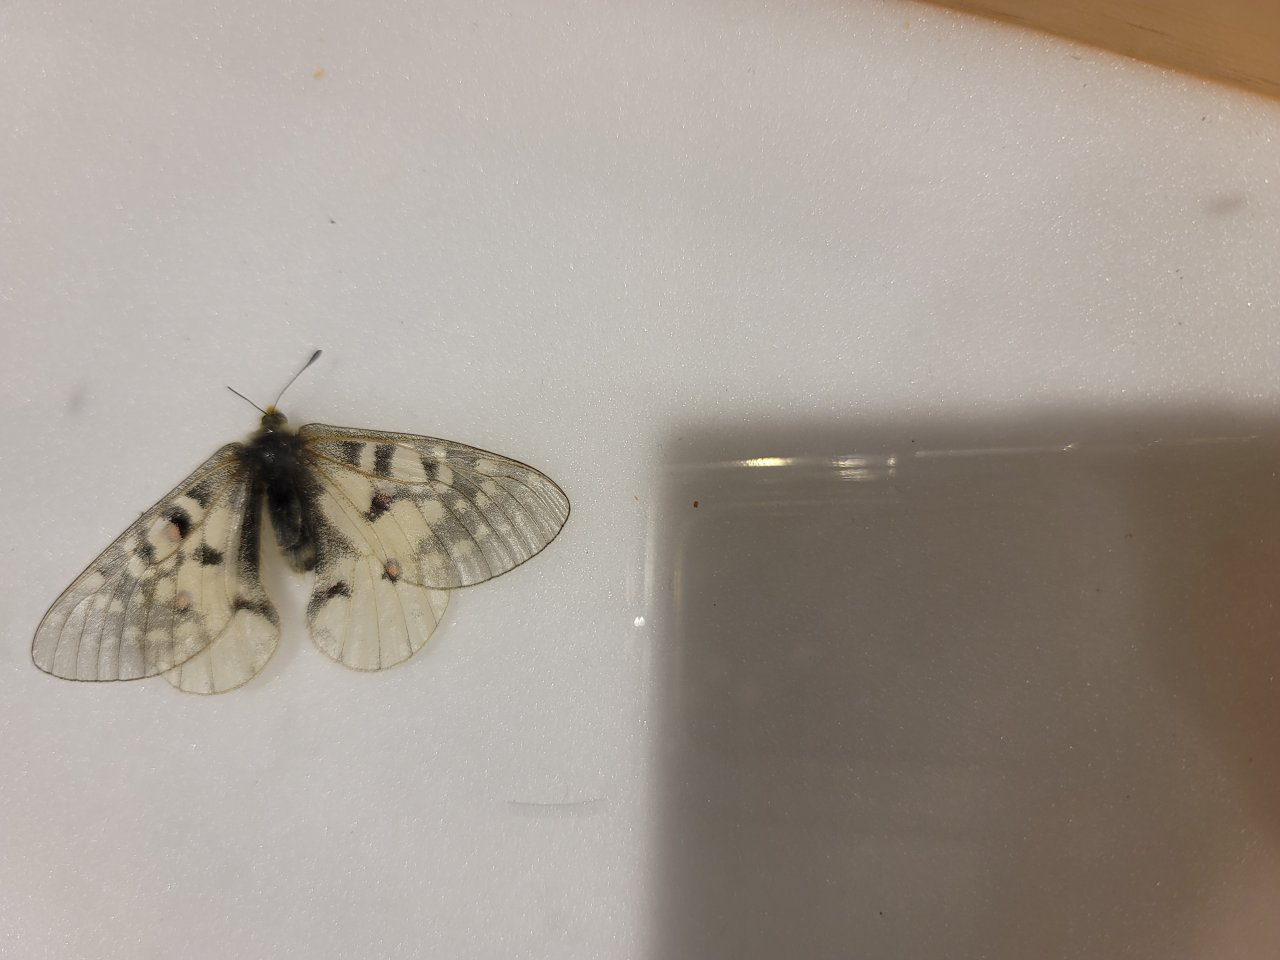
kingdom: Animalia
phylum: Arthropoda
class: Insecta
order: Lepidoptera
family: Papilionidae
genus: Parnassius
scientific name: Parnassius clodius
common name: Clodius Parnassian
